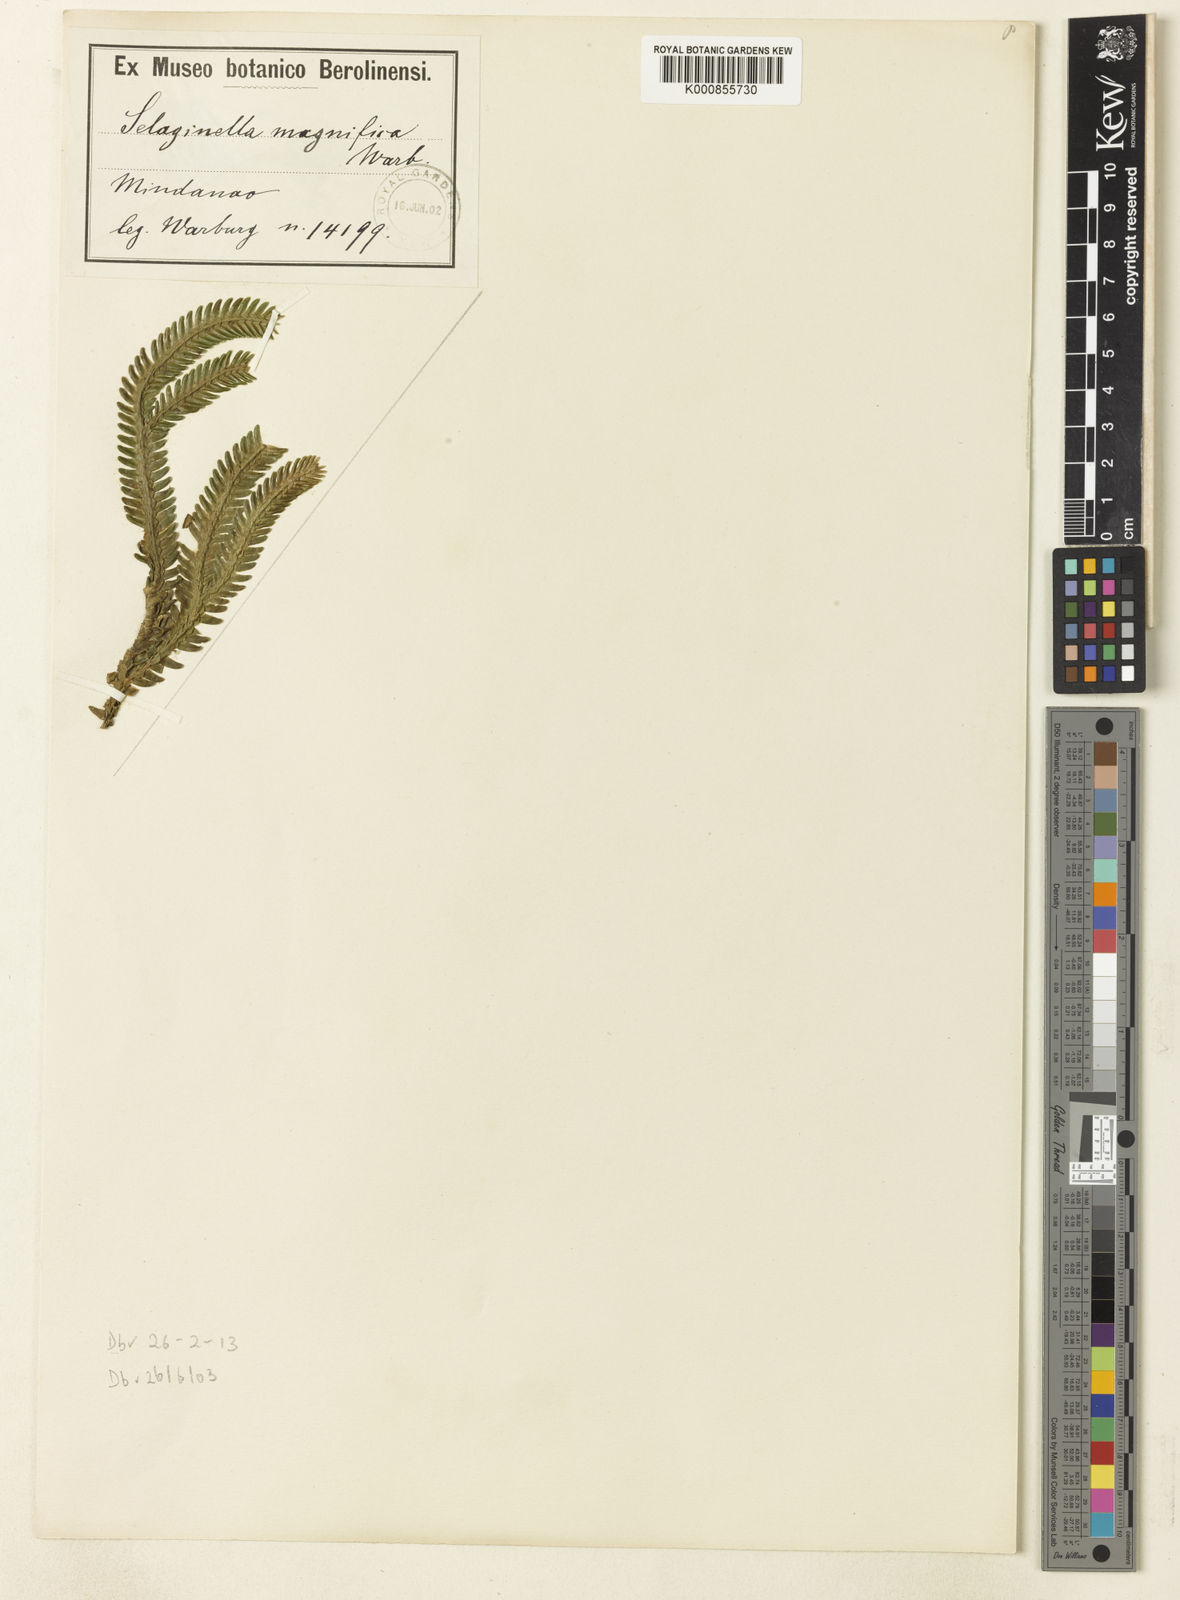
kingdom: Plantae
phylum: Tracheophyta
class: Lycopodiopsida
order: Selaginellales
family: Selaginellaceae
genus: Selaginella
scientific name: Selaginella
